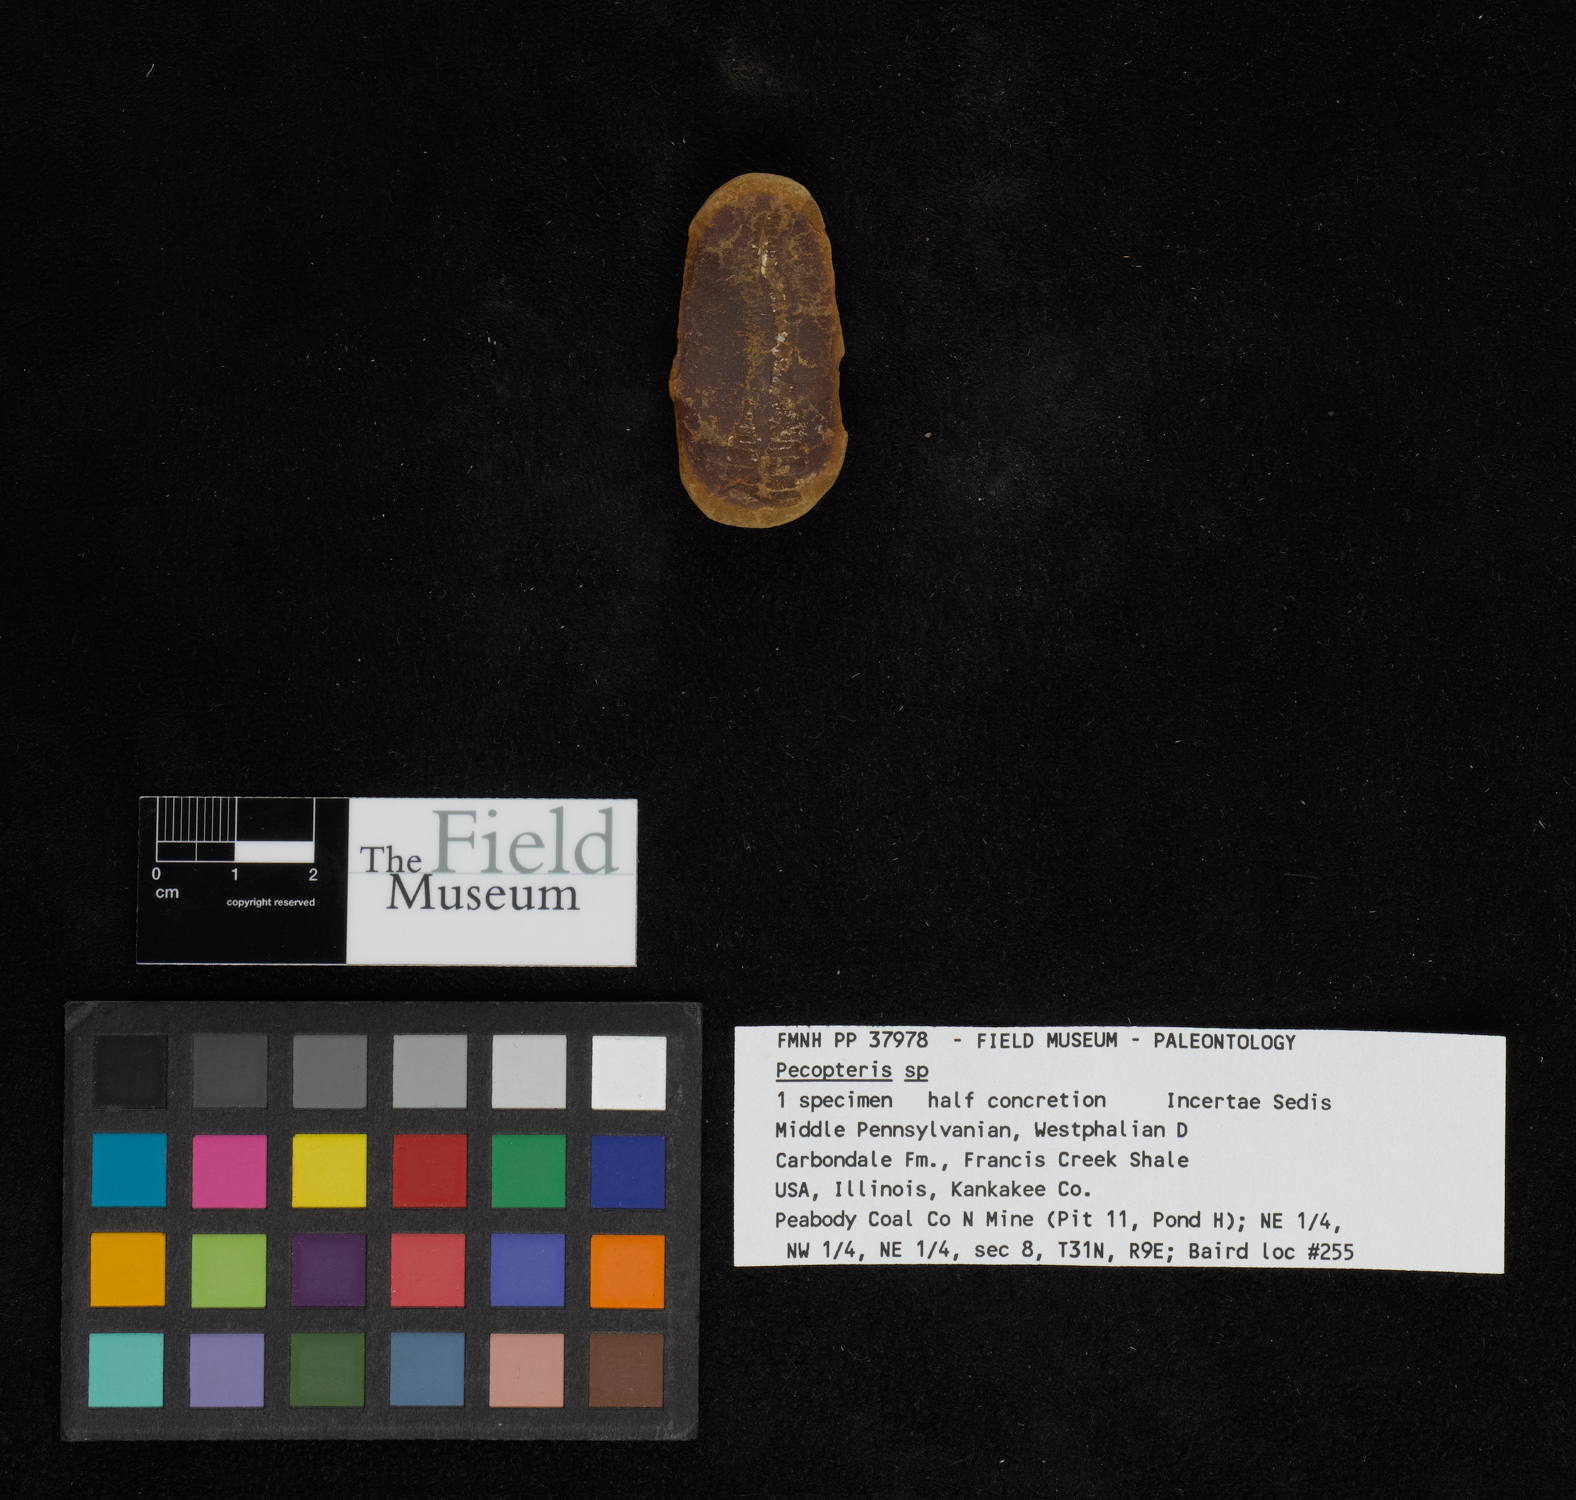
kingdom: Plantae
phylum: Tracheophyta
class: Polypodiopsida
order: Marattiales
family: Asterothecaceae
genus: Pecopteris
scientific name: Pecopteris
